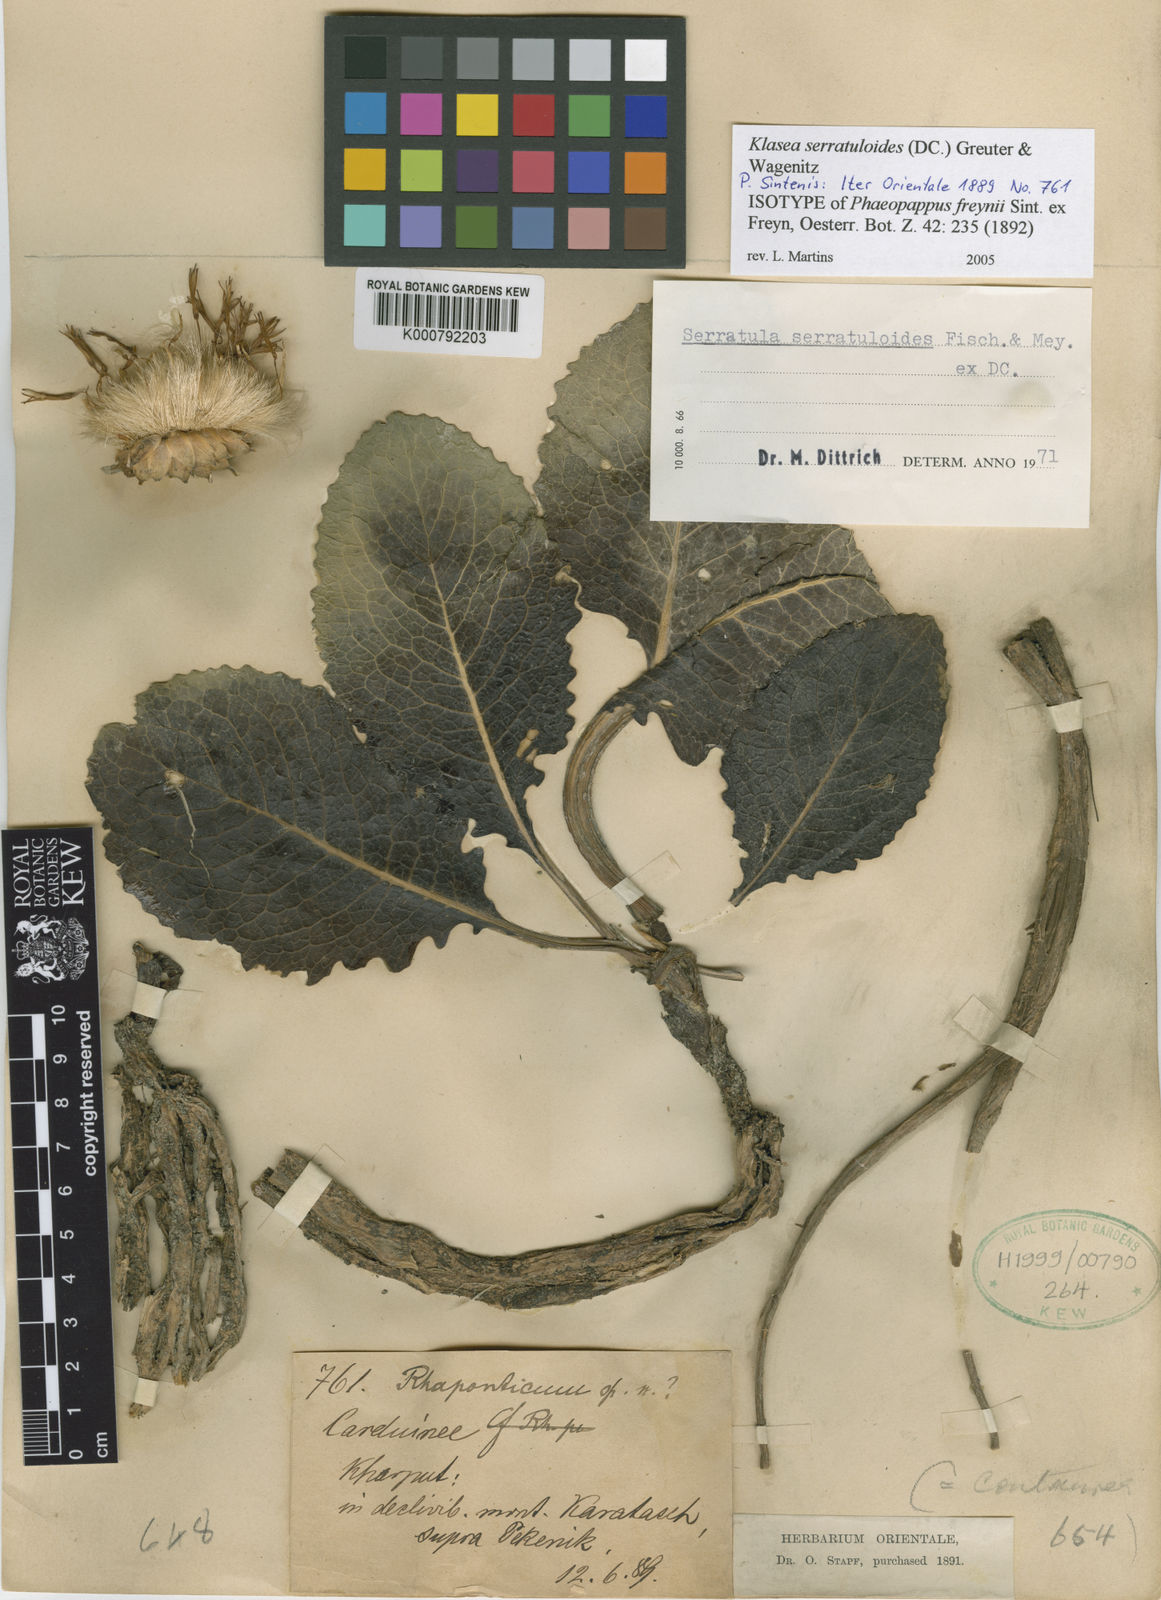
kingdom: Plantae
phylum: Tracheophyta
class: Magnoliopsida
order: Asterales
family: Asteraceae
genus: Serratula
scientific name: Serratula
